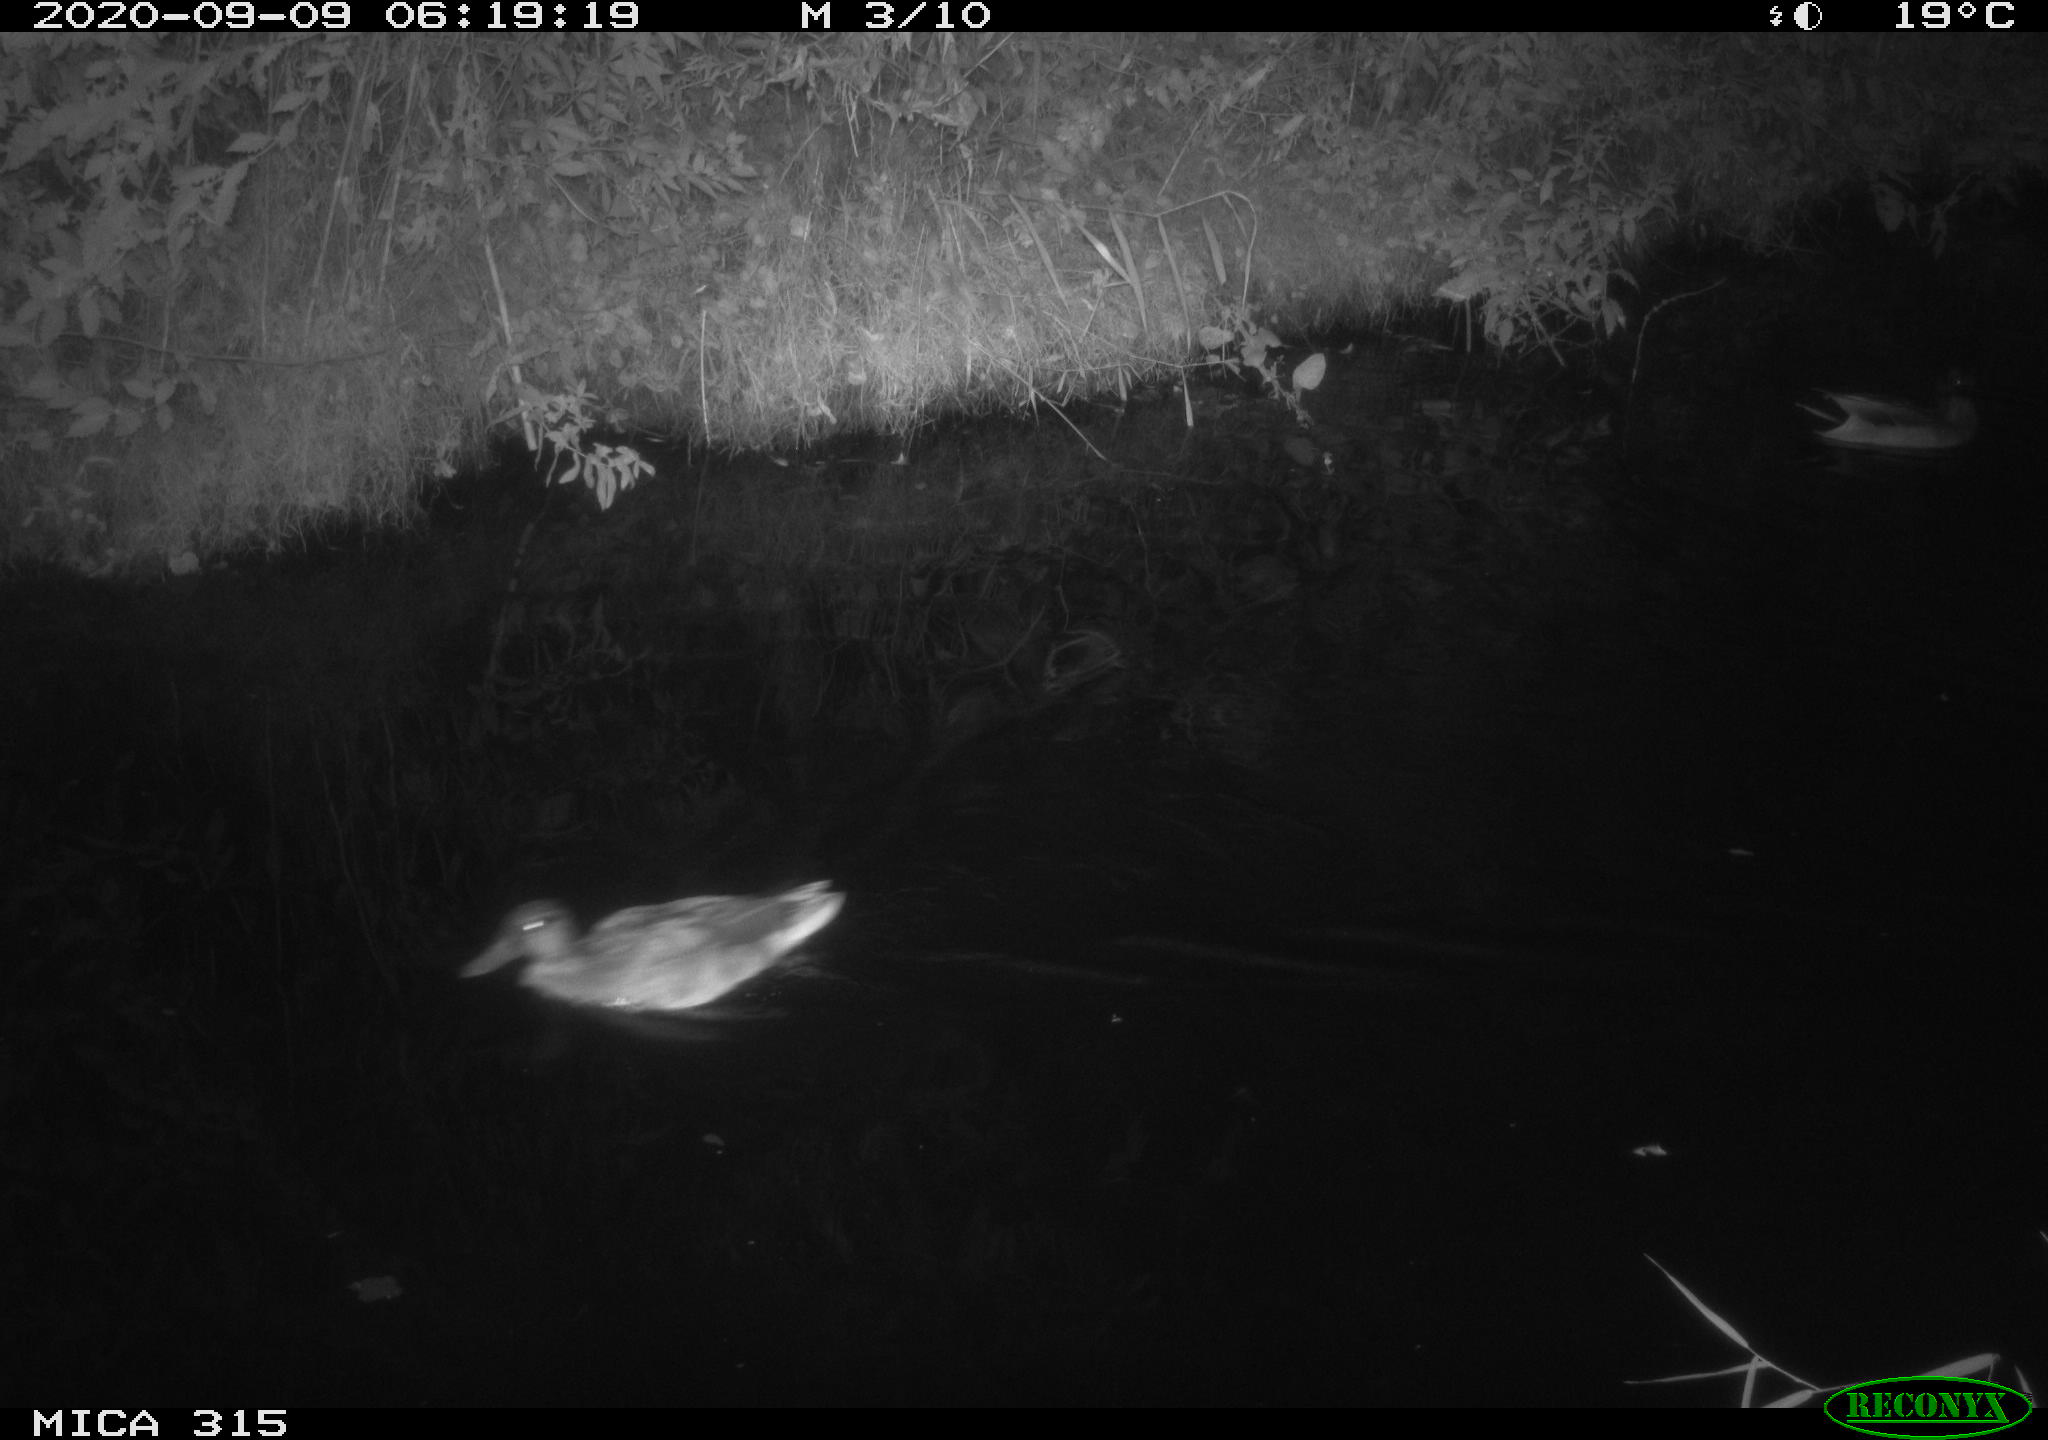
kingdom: Animalia
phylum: Chordata
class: Aves
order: Anseriformes
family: Anatidae
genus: Anas
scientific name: Anas platyrhynchos
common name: Mallard
